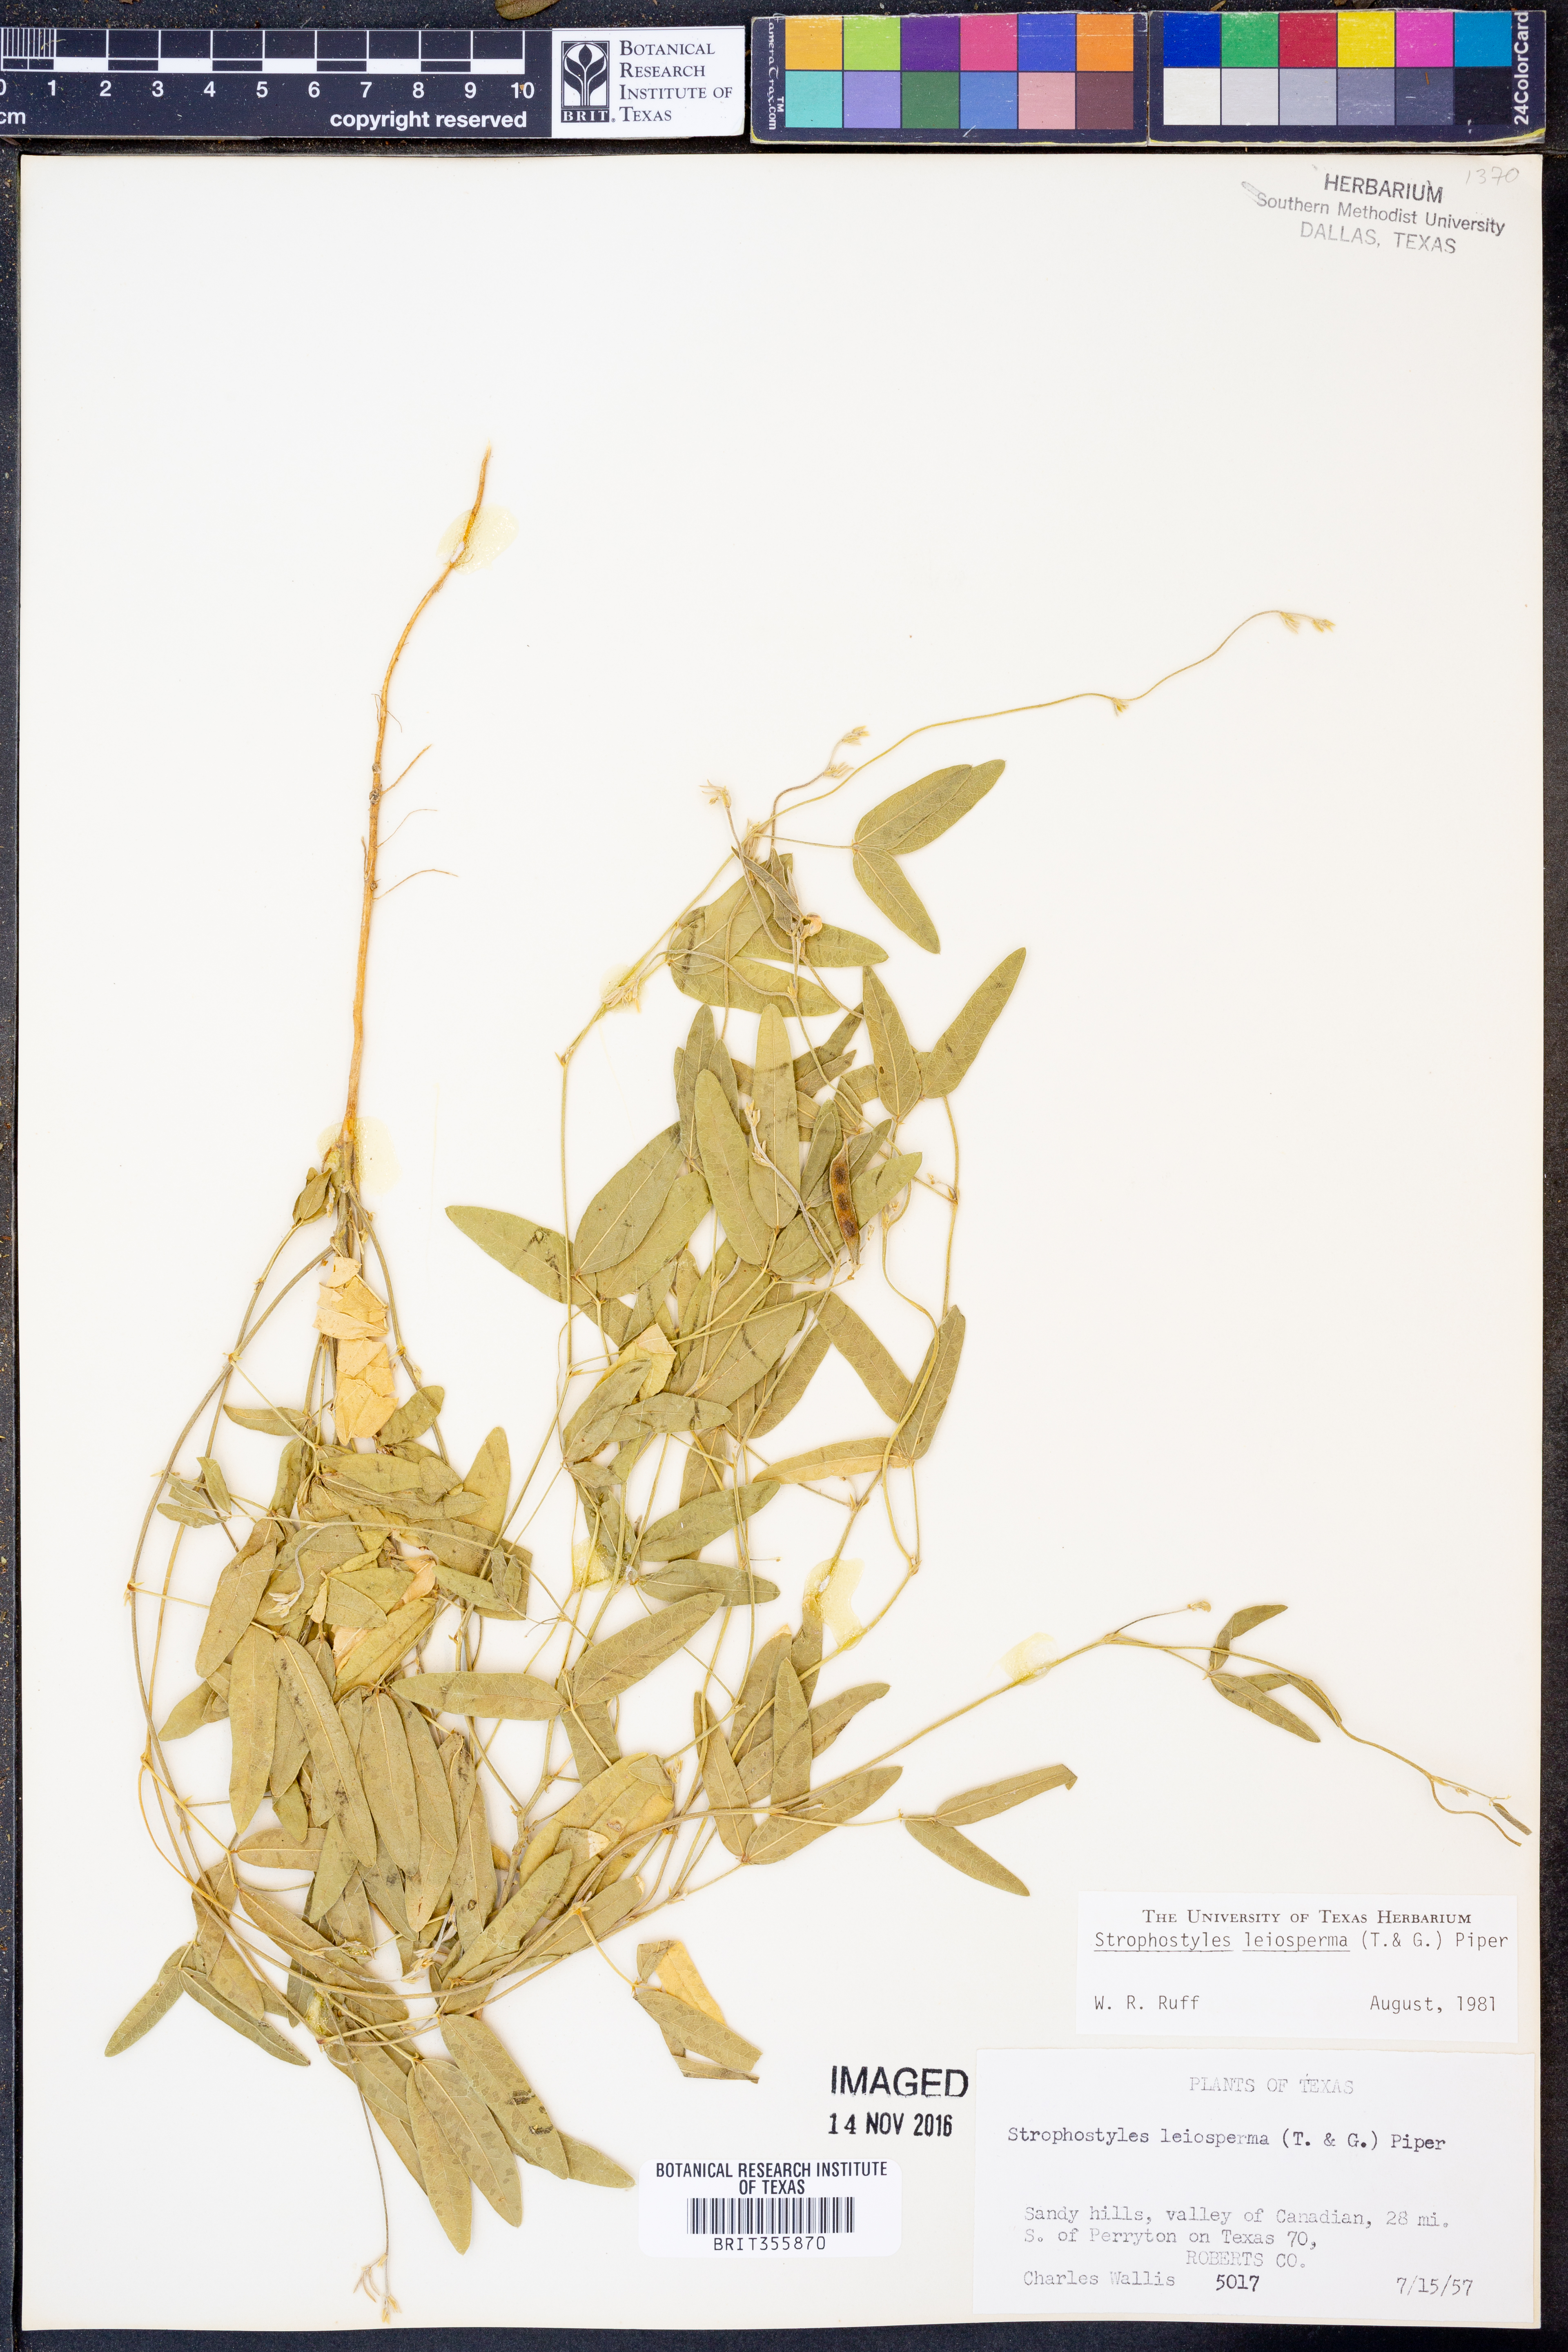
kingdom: Plantae
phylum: Tracheophyta
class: Magnoliopsida
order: Fabales
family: Fabaceae
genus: Strophostyles
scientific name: Strophostyles leiosperma
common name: Smooth-seed wild bean
